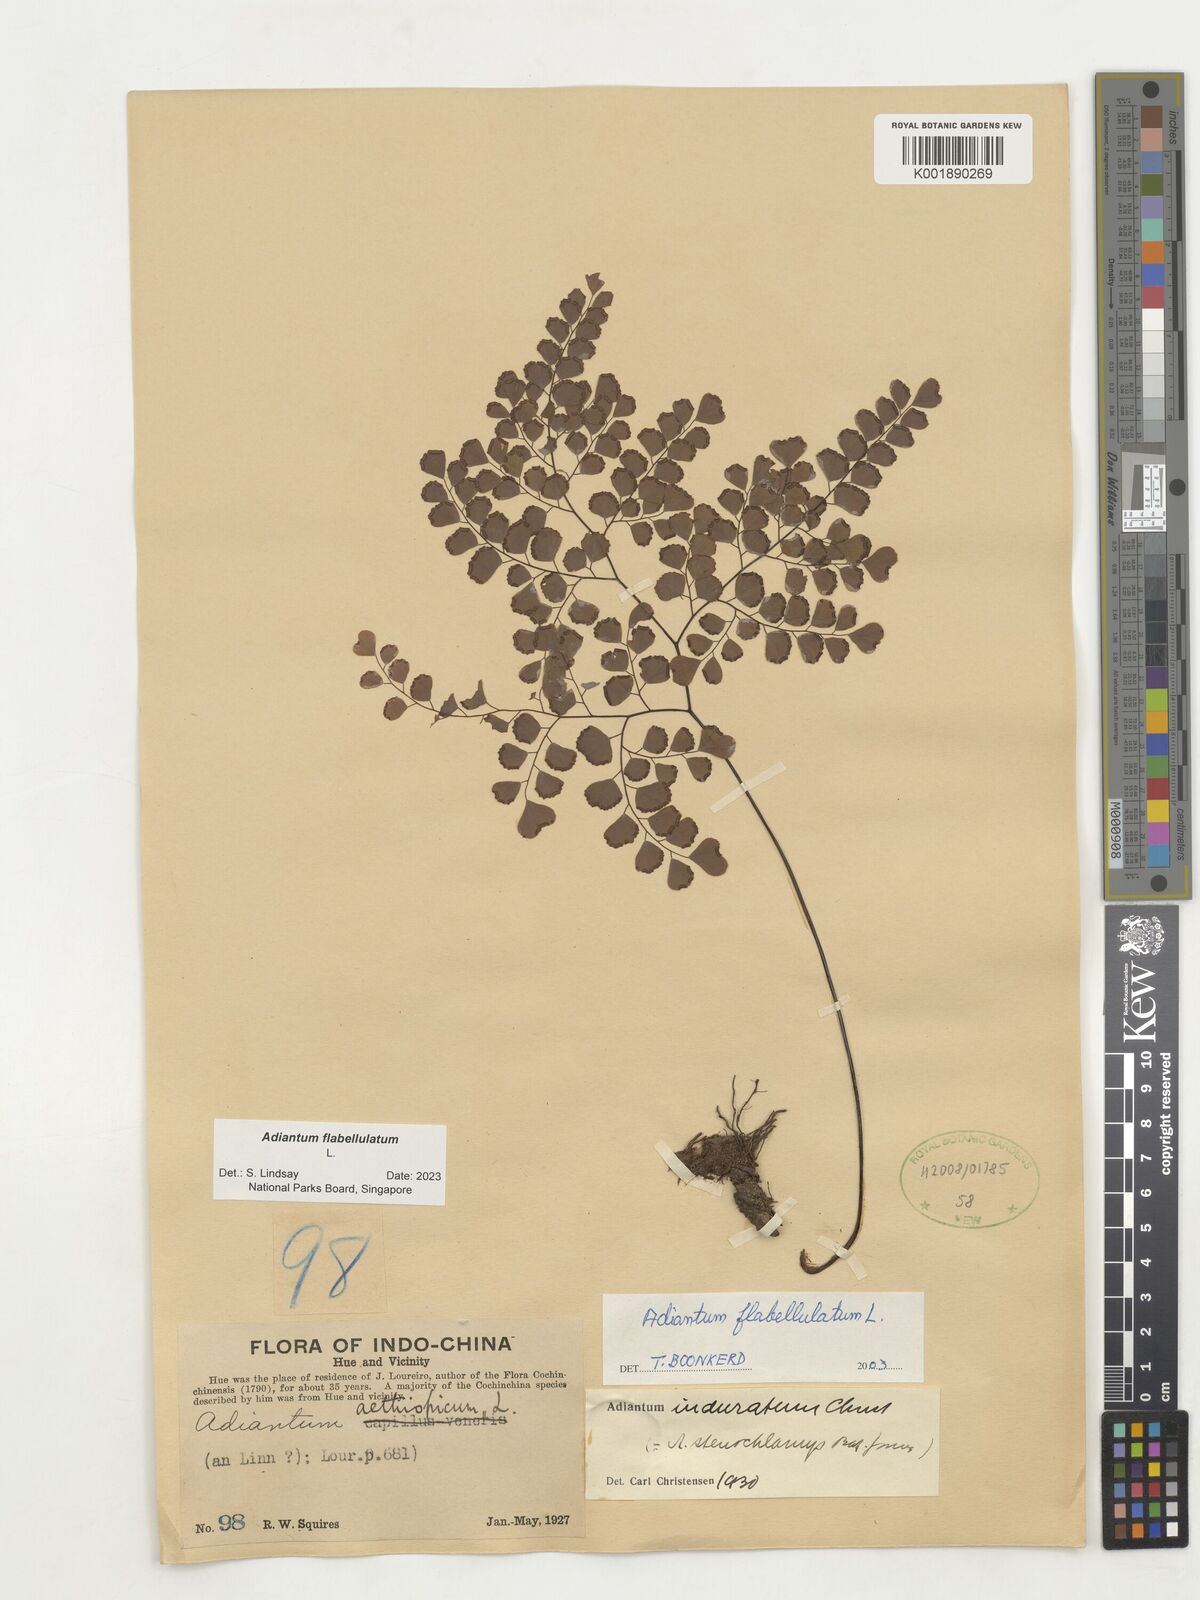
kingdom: Plantae
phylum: Tracheophyta
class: Polypodiopsida
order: Polypodiales
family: Pteridaceae
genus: Adiantum
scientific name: Adiantum flabellulatum
